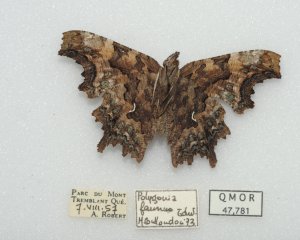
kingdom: Animalia
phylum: Arthropoda
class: Insecta
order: Lepidoptera
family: Nymphalidae
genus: Polygonia
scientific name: Polygonia faunus
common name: Green Comma
